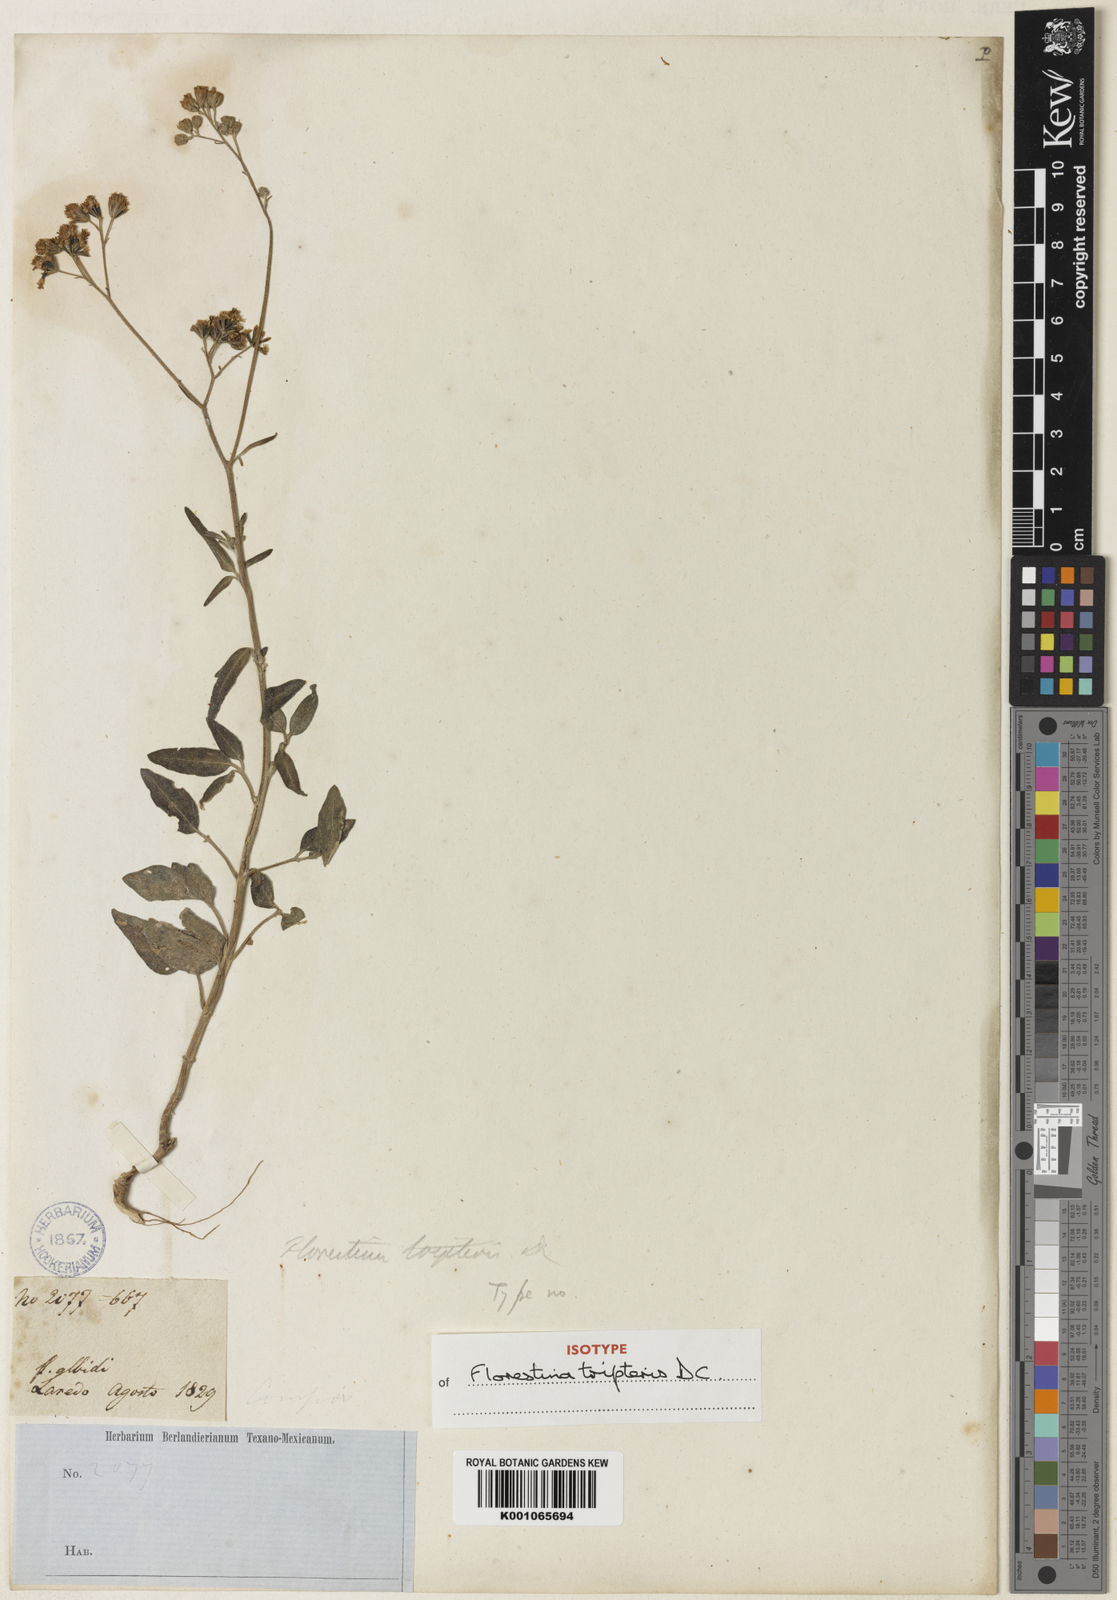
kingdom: Plantae
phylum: Tracheophyta
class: Magnoliopsida
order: Asterales
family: Asteraceae
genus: Florestina
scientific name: Florestina tripteris
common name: Sticky florestina
